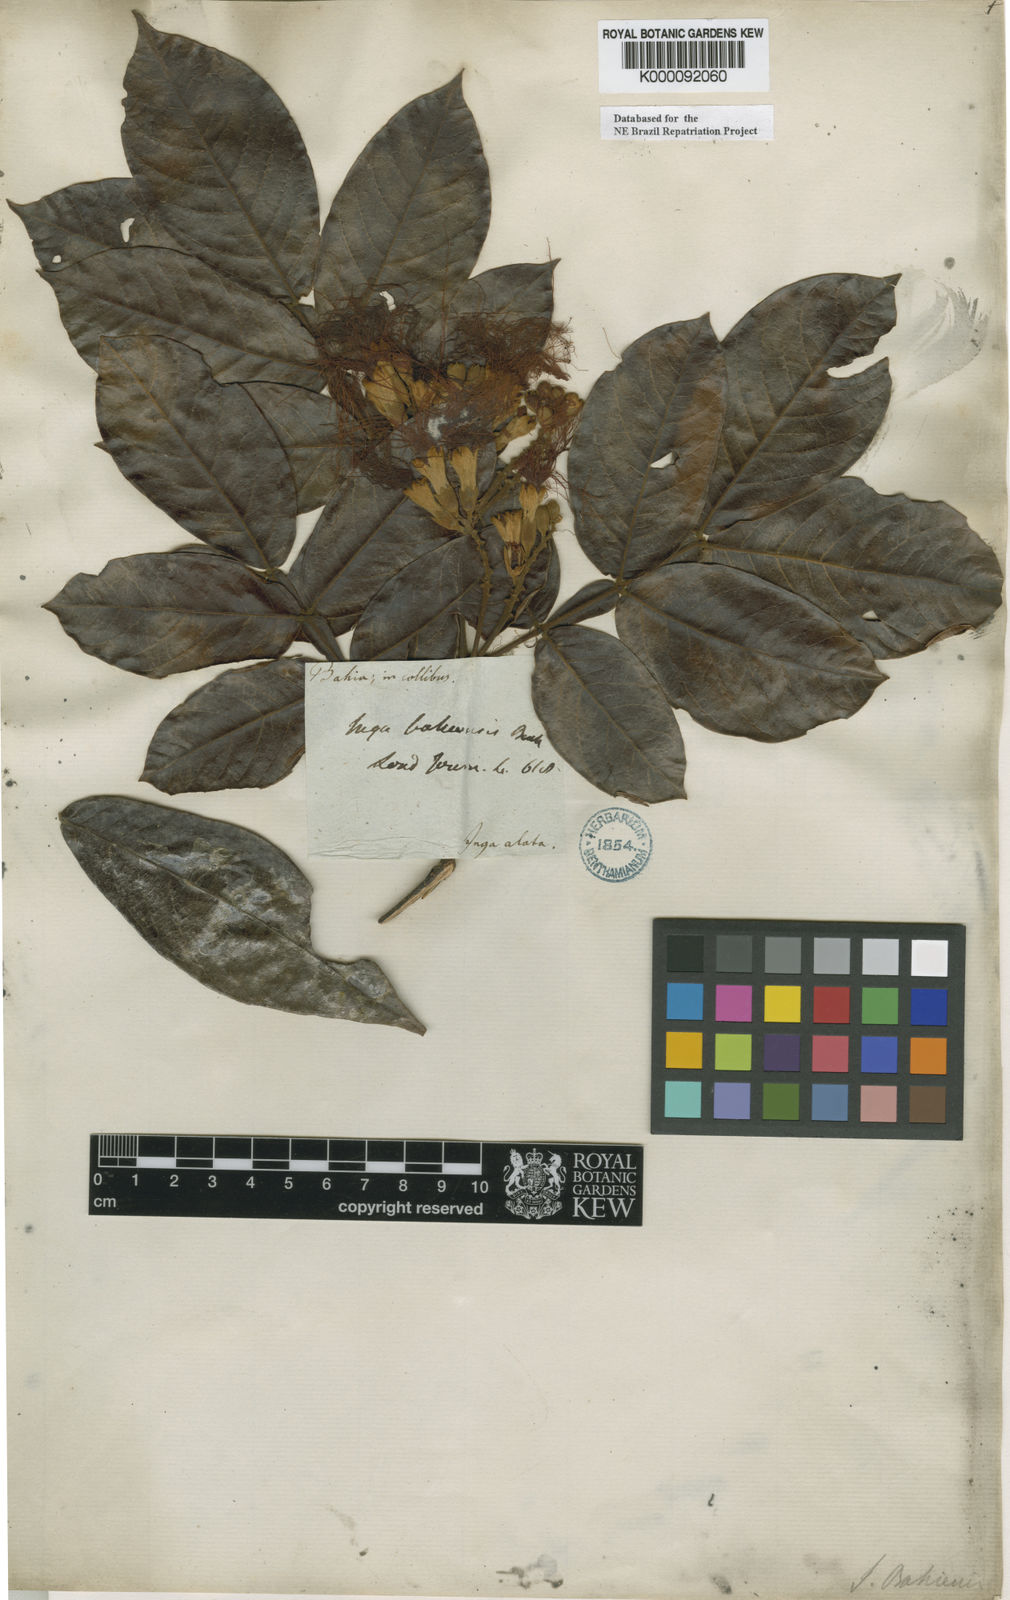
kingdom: Plantae
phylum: Tracheophyta
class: Magnoliopsida
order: Fabales
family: Fabaceae
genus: Inga
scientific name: Inga ingoides
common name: Spanish ash
